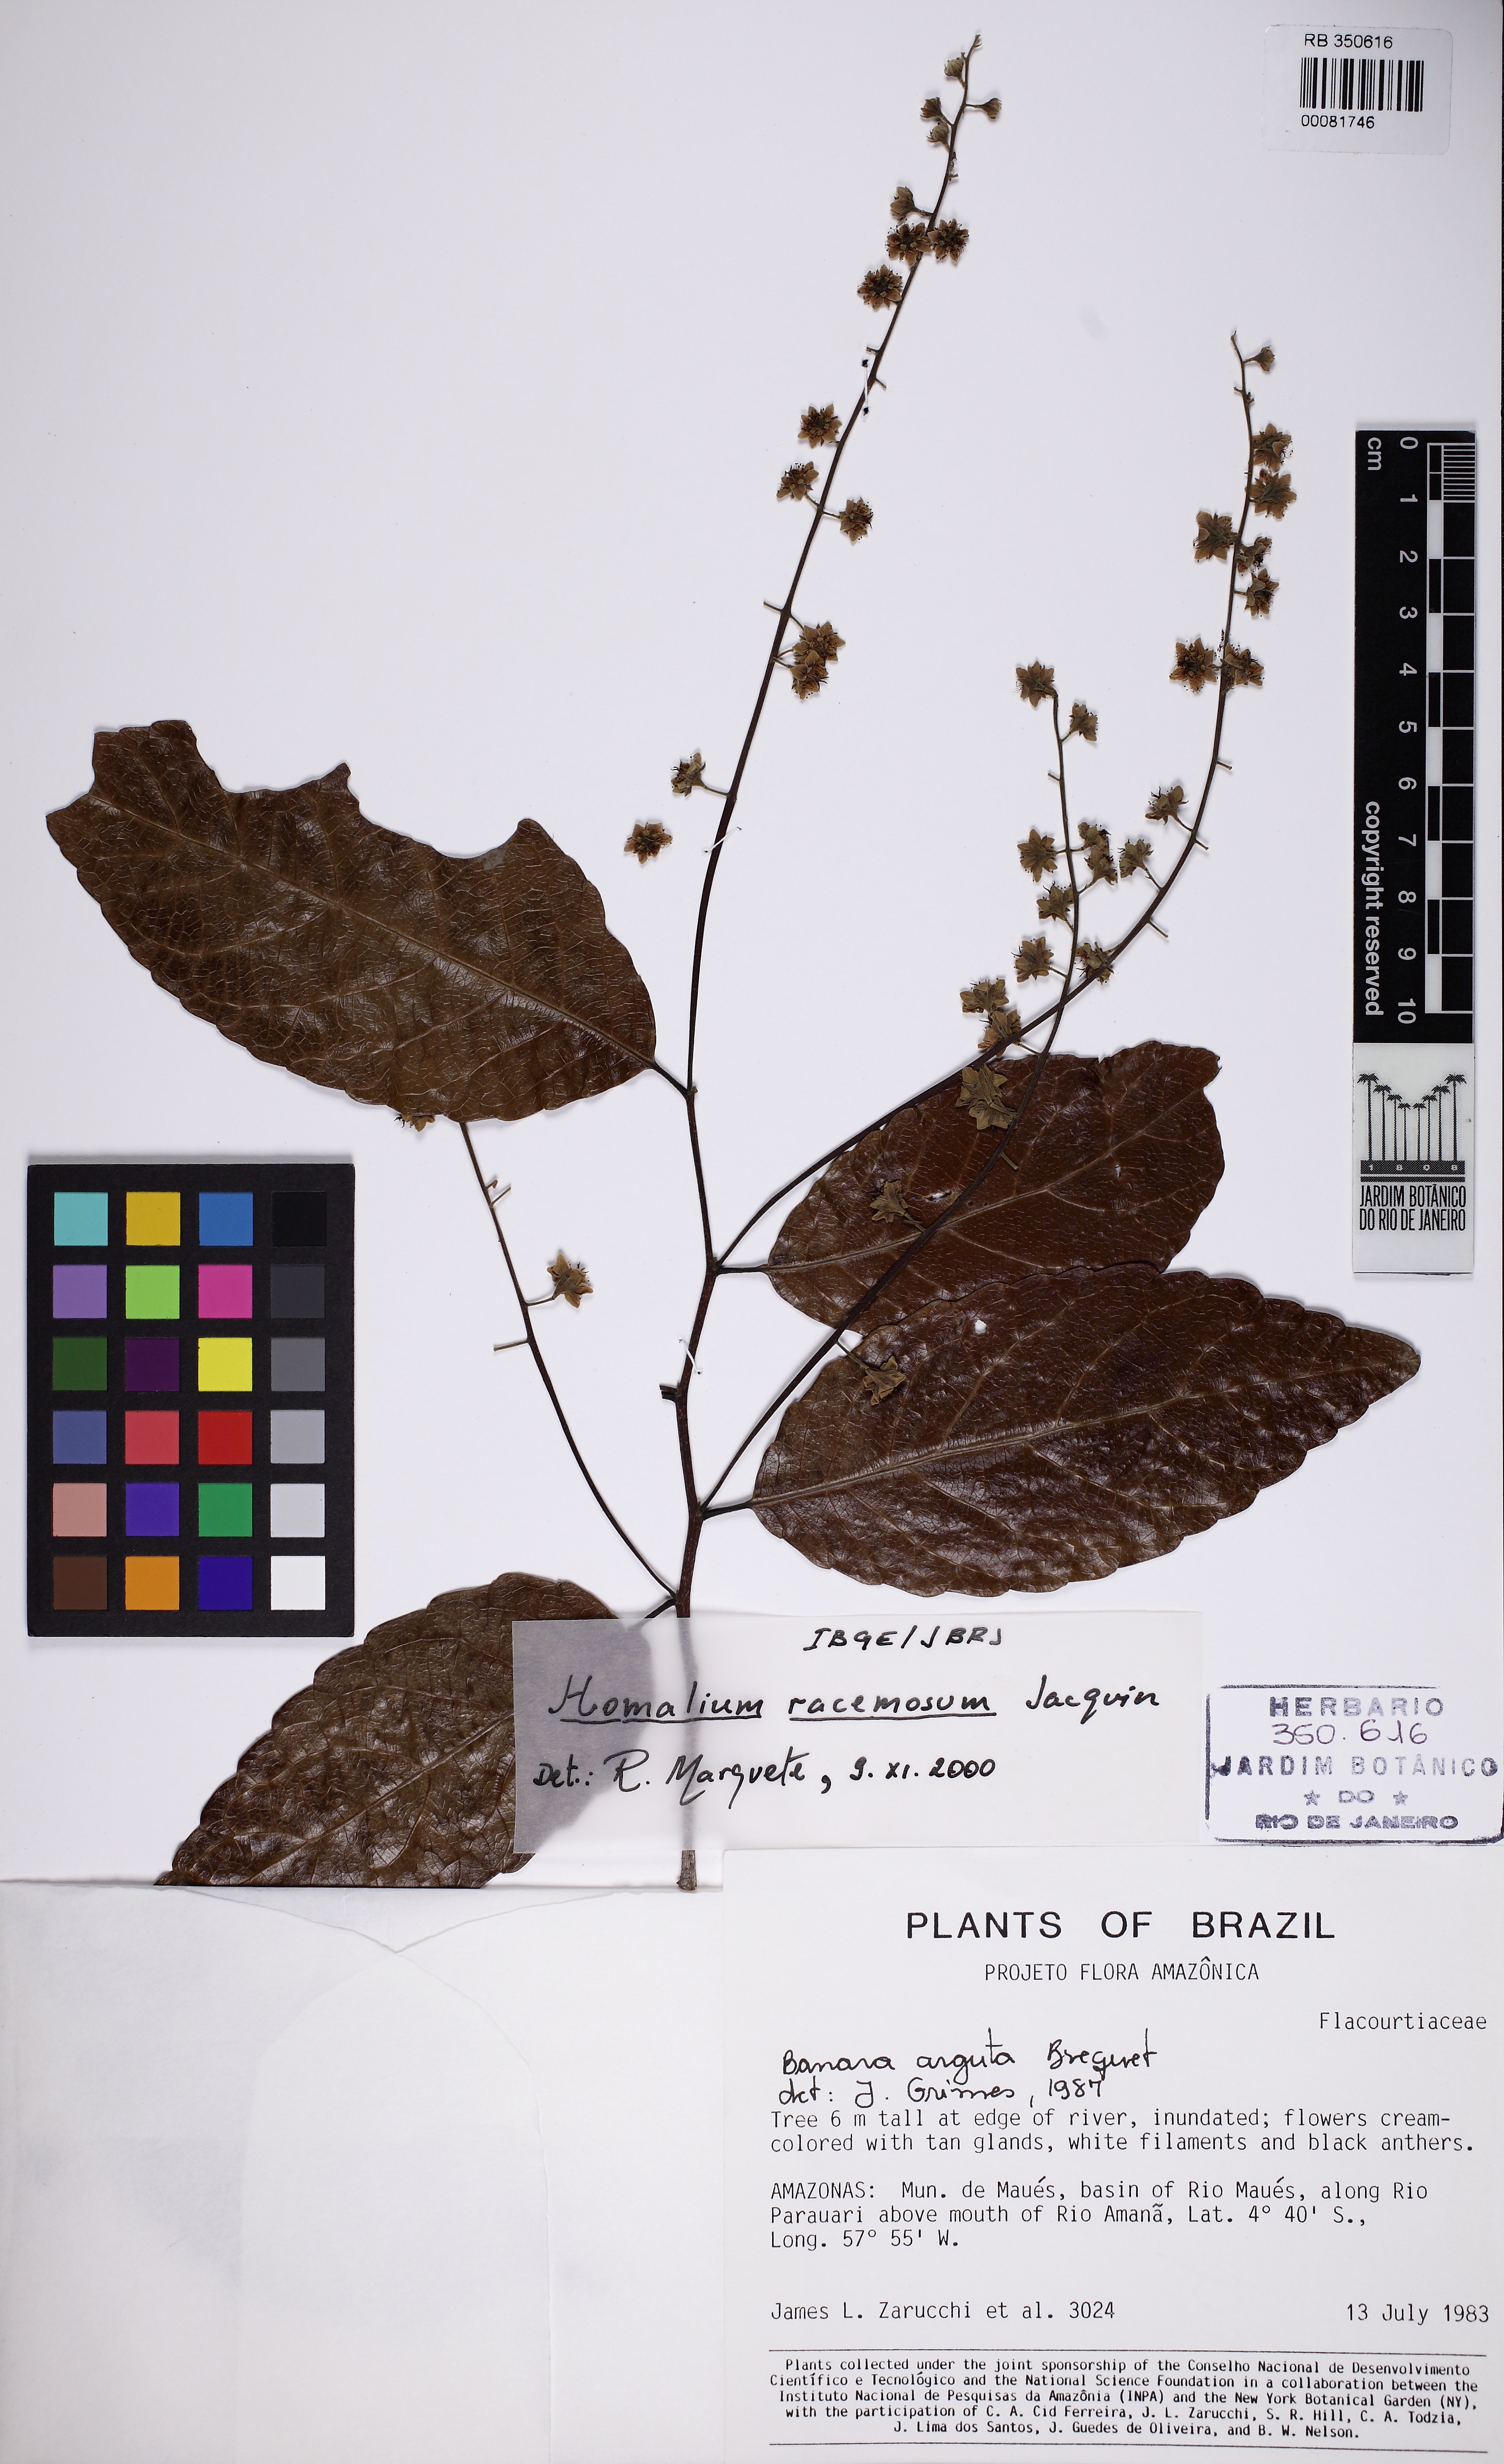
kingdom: Plantae
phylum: Tracheophyta
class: Magnoliopsida
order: Malpighiales
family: Salicaceae
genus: Homalium
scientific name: Homalium racemosum
